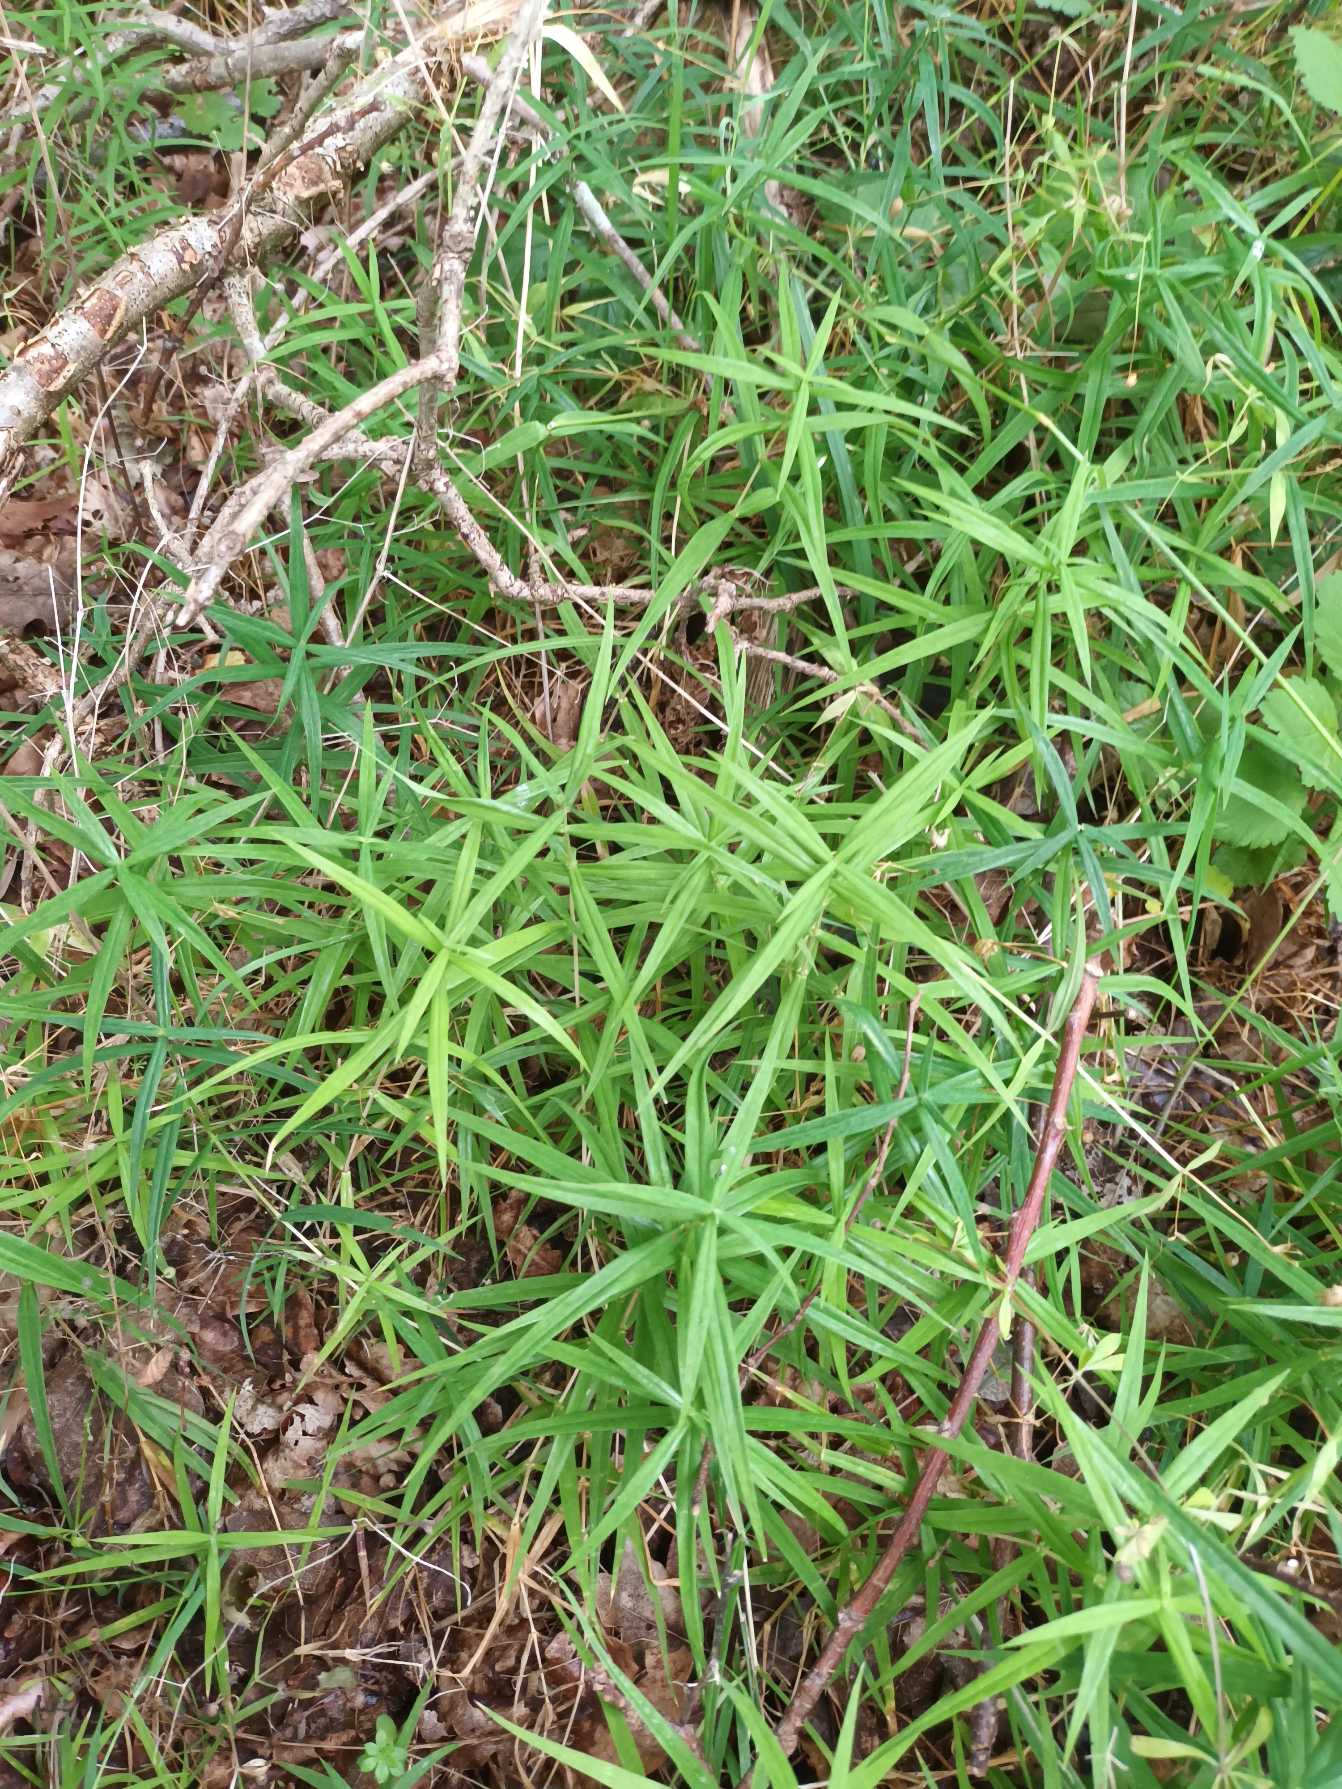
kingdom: Plantae
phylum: Tracheophyta
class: Magnoliopsida
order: Caryophyllales
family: Caryophyllaceae
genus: Rabelera
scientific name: Rabelera holostea
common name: Stor fladstjerne
